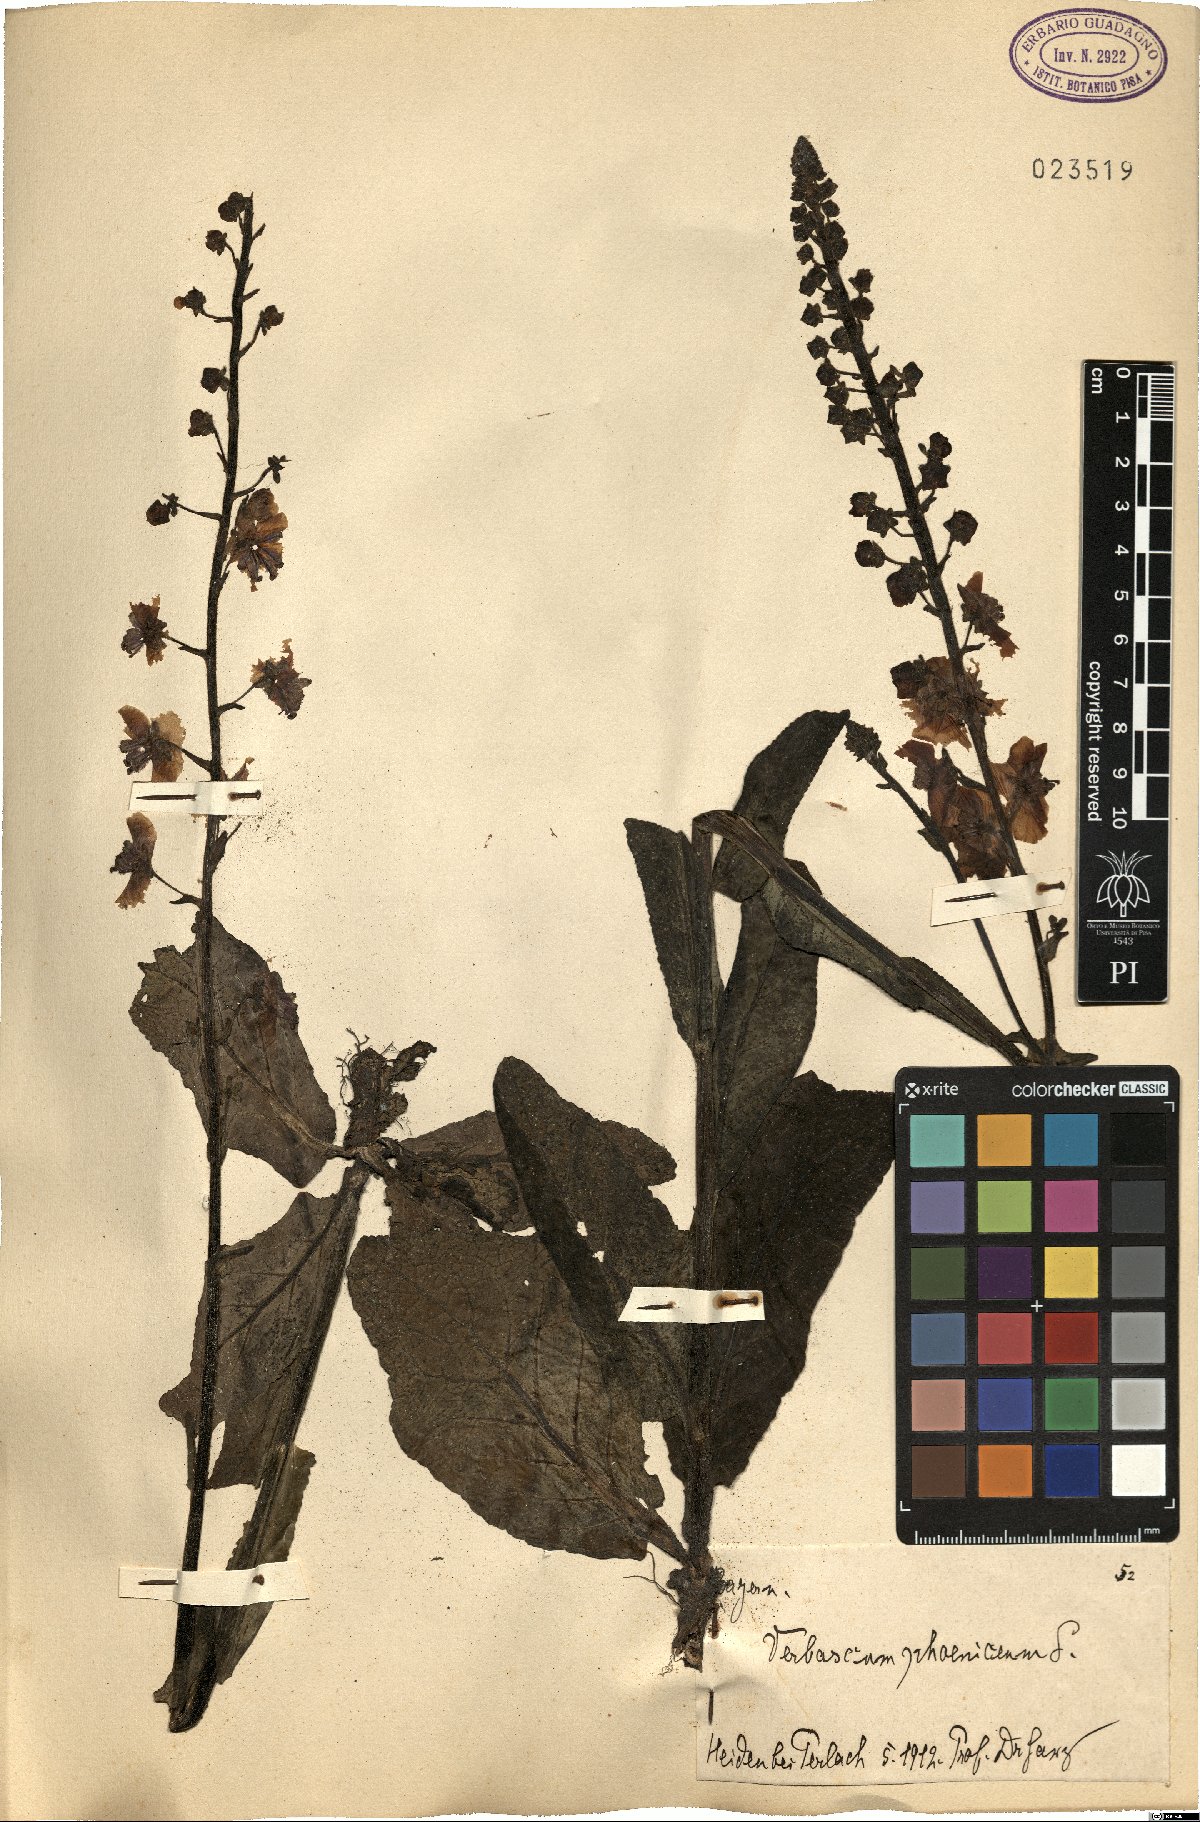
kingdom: Plantae
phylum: Tracheophyta
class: Magnoliopsida
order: Lamiales
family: Scrophulariaceae
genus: Verbascum
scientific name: Verbascum phoeniceum
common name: Purple mullein
